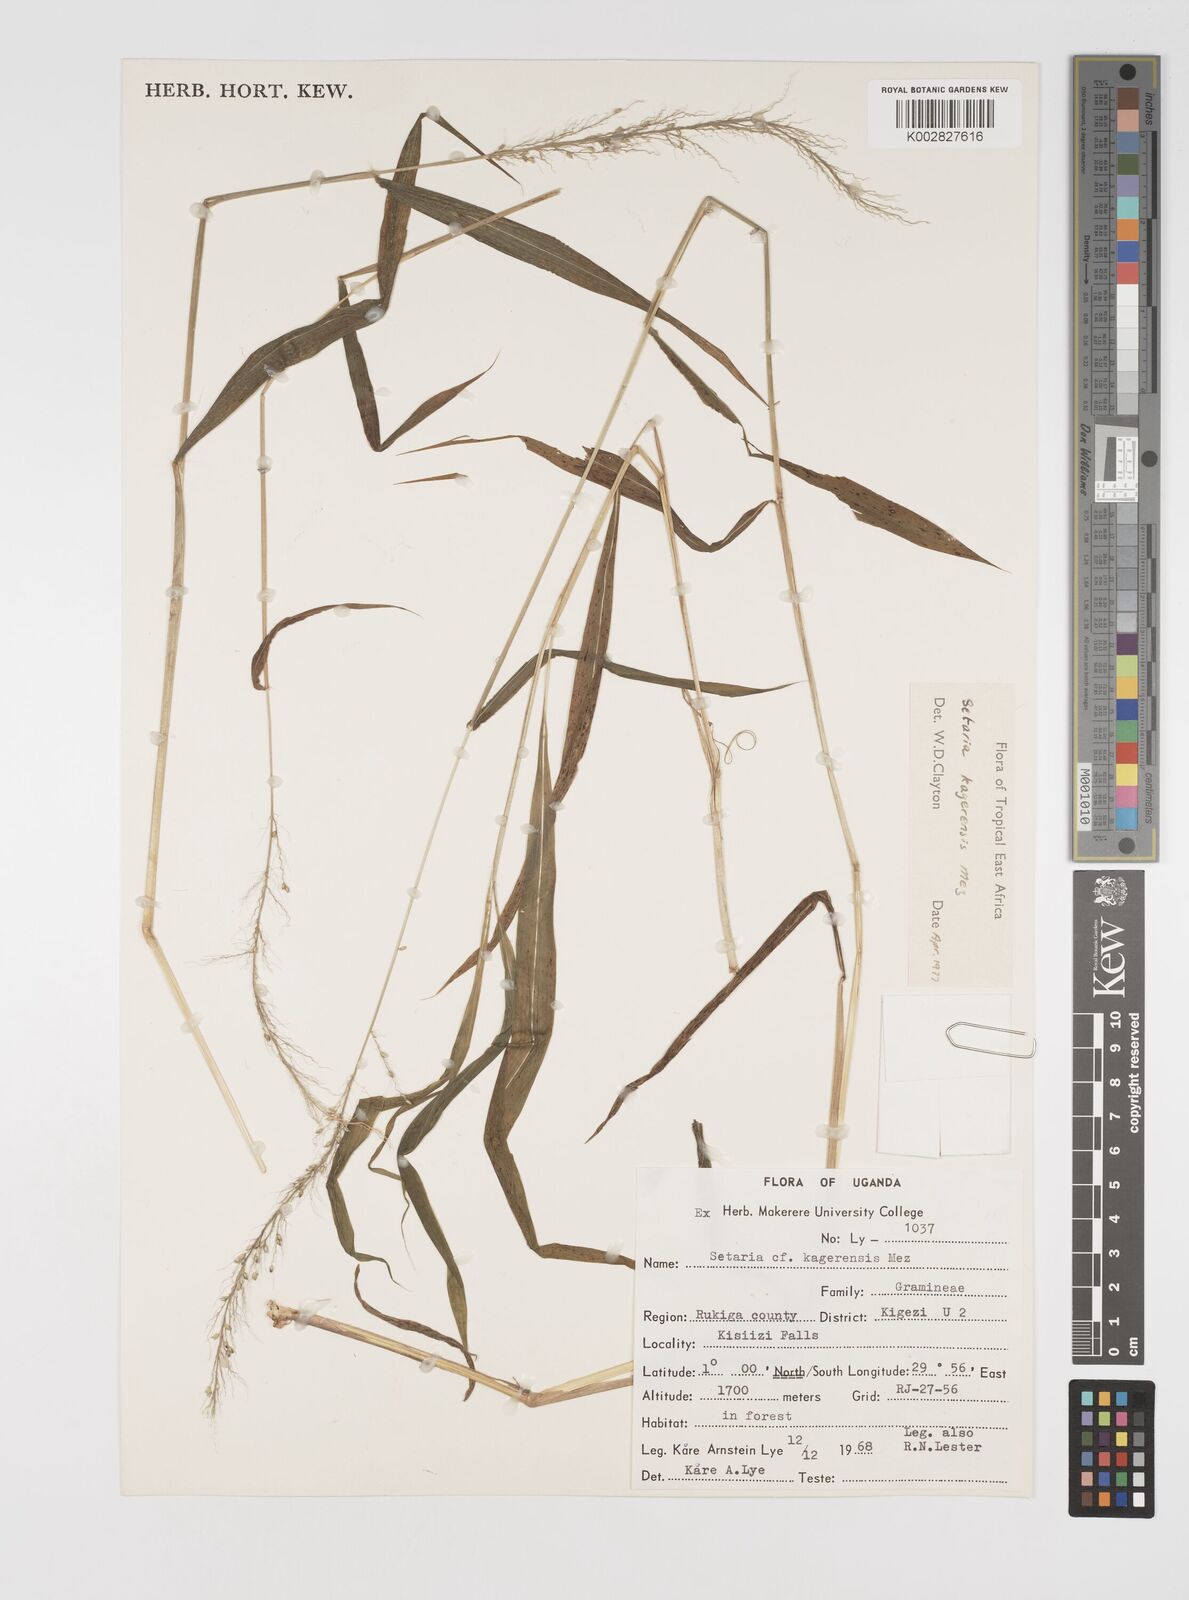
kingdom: Plantae
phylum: Tracheophyta
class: Liliopsida
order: Poales
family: Poaceae
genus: Setaria
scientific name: Setaria kagerensis
